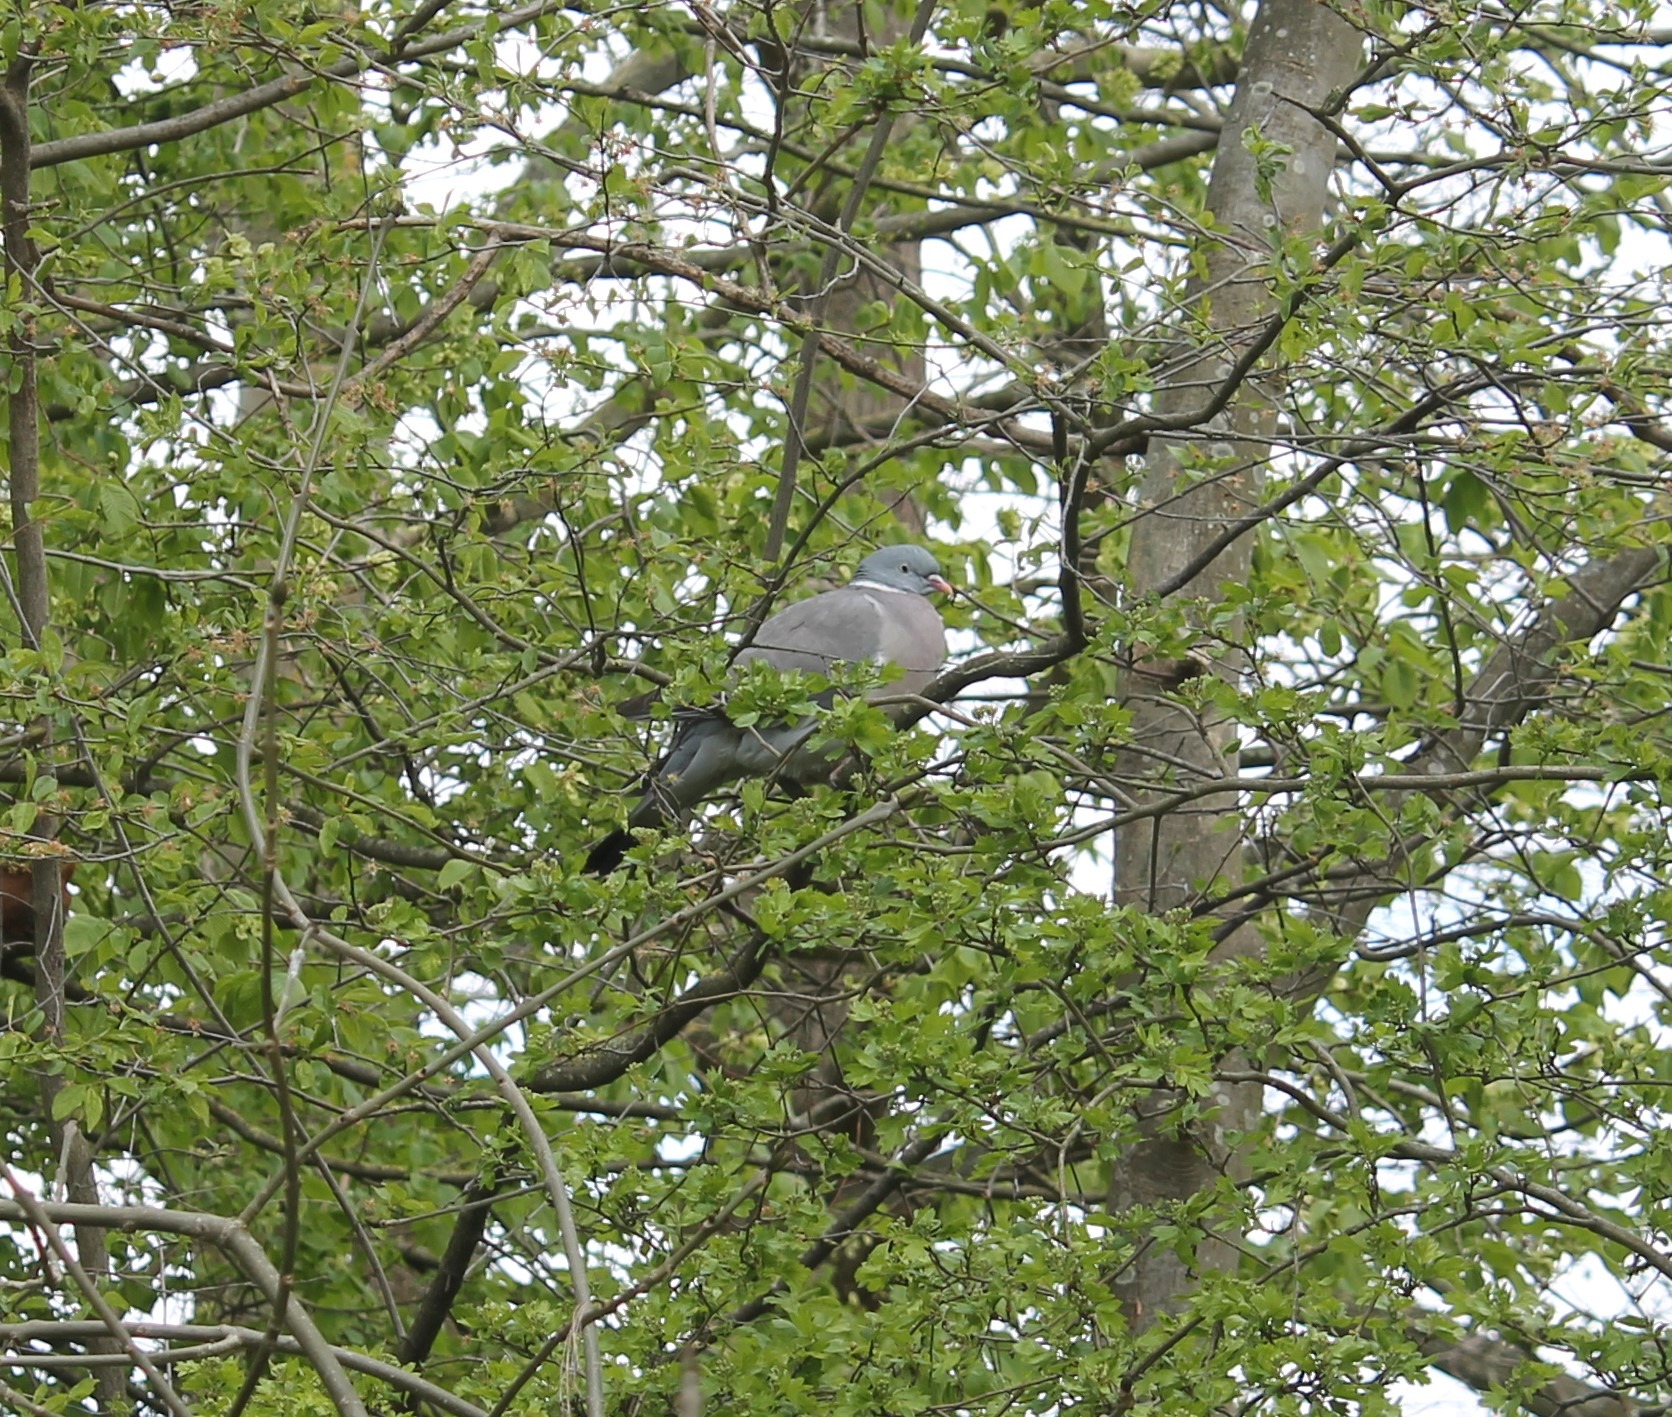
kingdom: Animalia
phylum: Chordata
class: Aves
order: Columbiformes
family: Columbidae
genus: Columba
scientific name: Columba palumbus
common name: Ringdue
